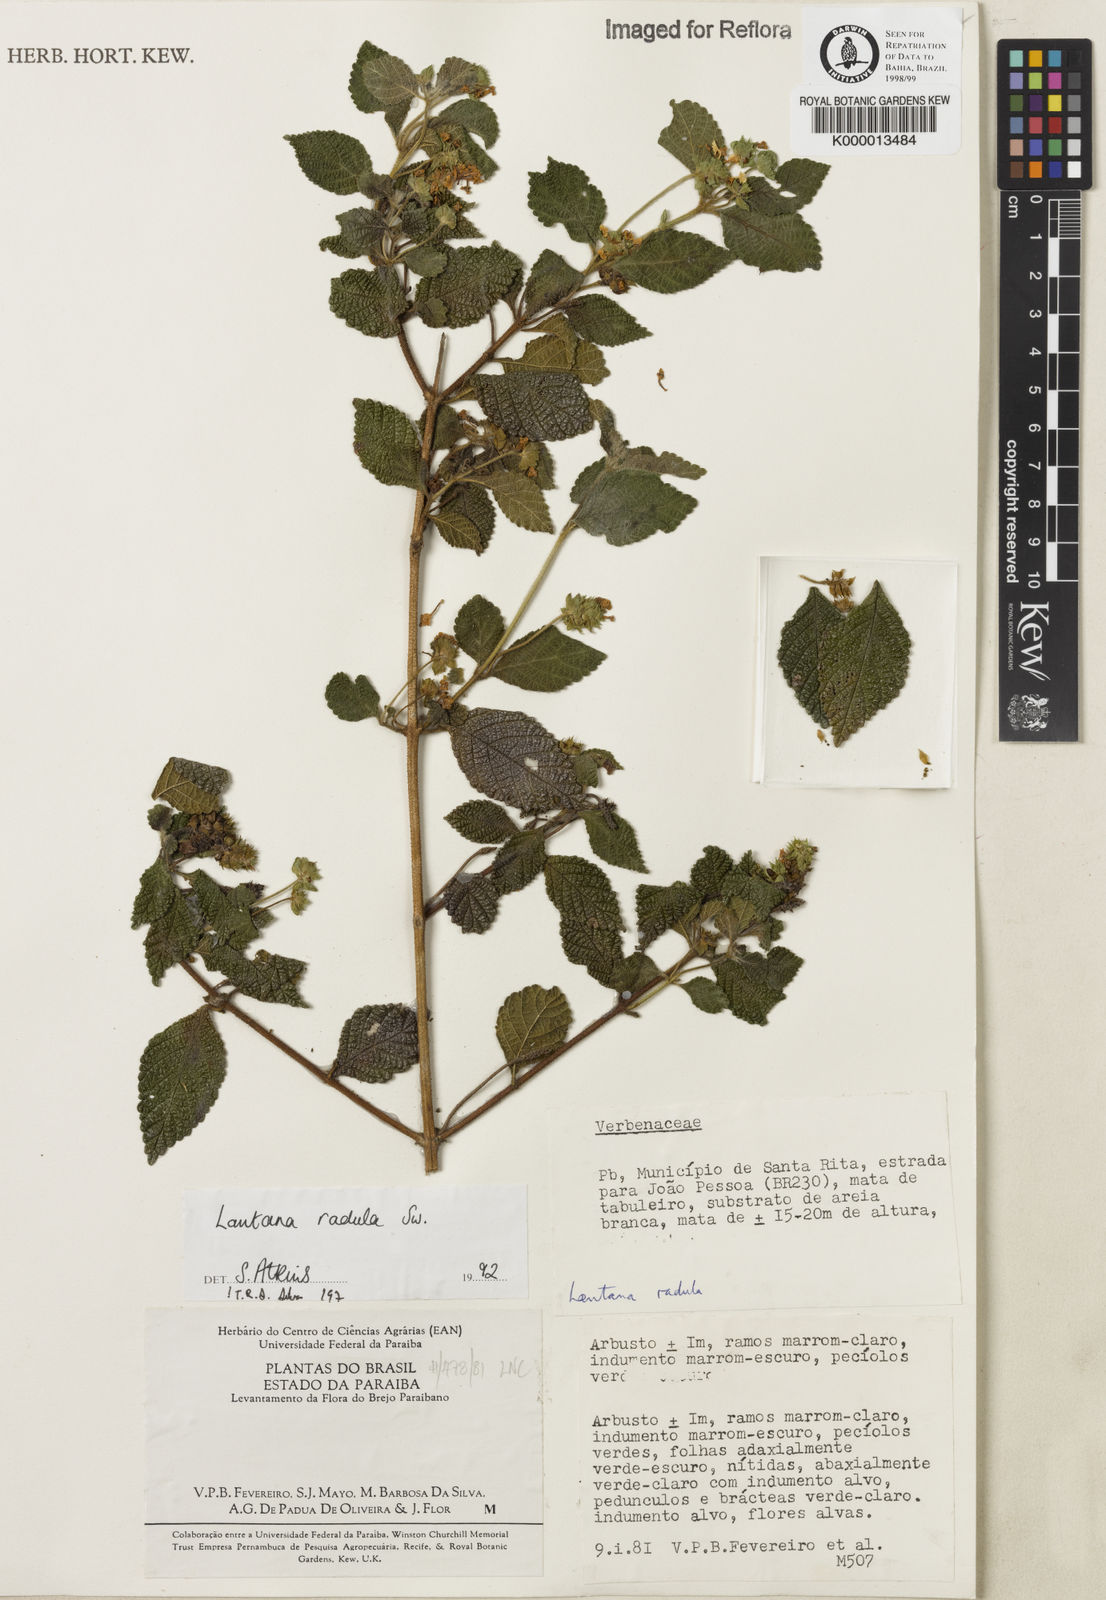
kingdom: Plantae
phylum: Tracheophyta
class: Magnoliopsida
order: Lamiales
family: Verbenaceae
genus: Lantana
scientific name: Lantana radula
